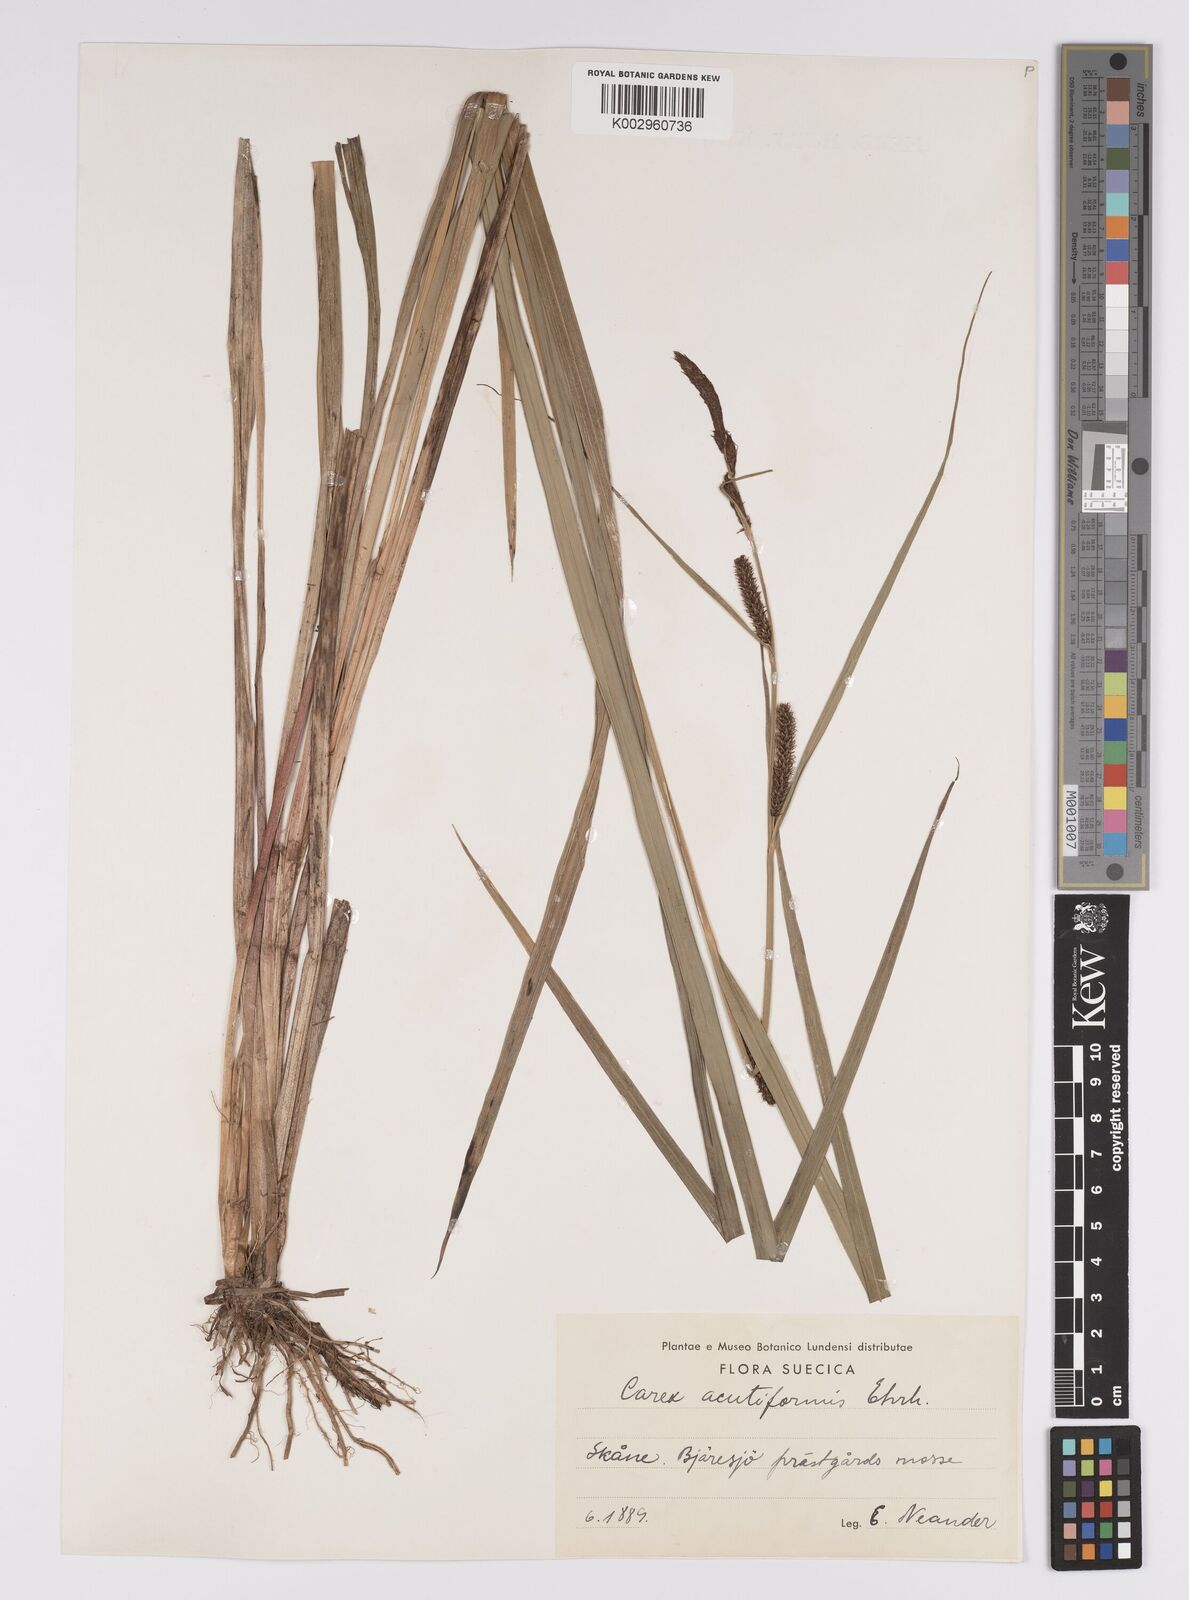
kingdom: Plantae
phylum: Tracheophyta
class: Liliopsida
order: Poales
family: Cyperaceae
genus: Carex
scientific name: Carex acutiformis
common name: Lesser pond-sedge
